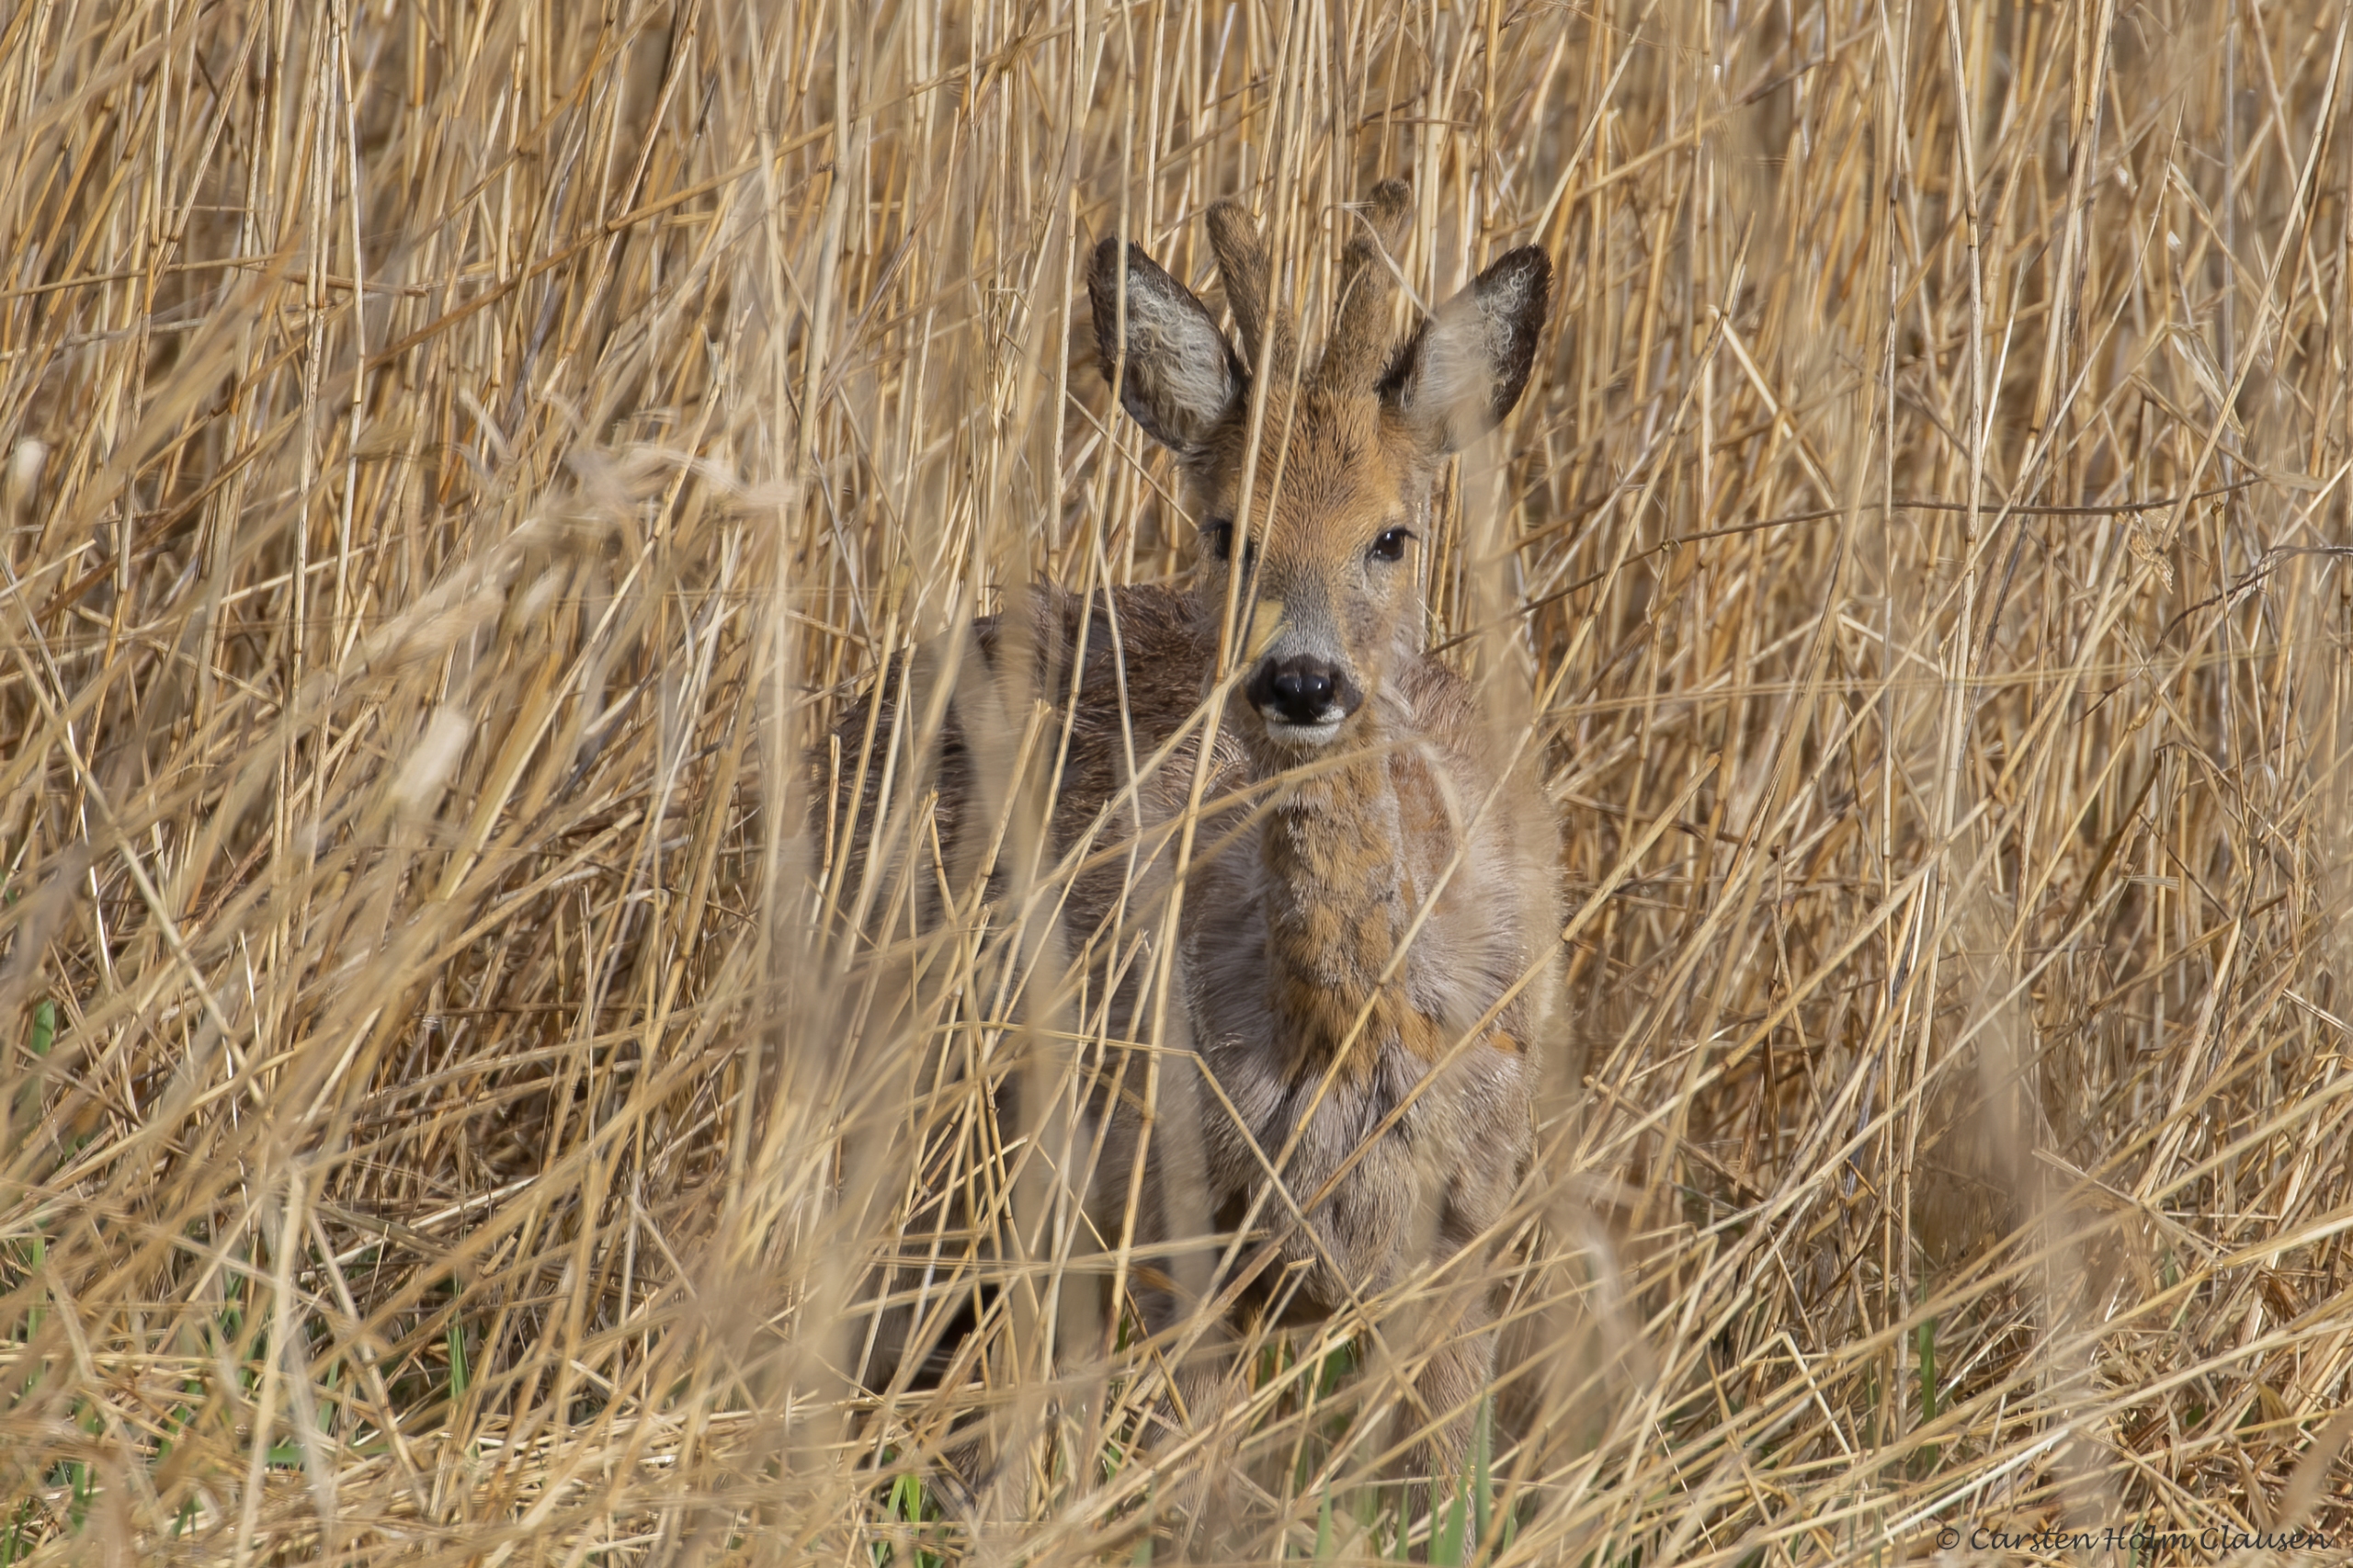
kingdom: Animalia
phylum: Chordata
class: Mammalia
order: Artiodactyla
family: Cervidae
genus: Capreolus
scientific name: Capreolus capreolus
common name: Rådyr
